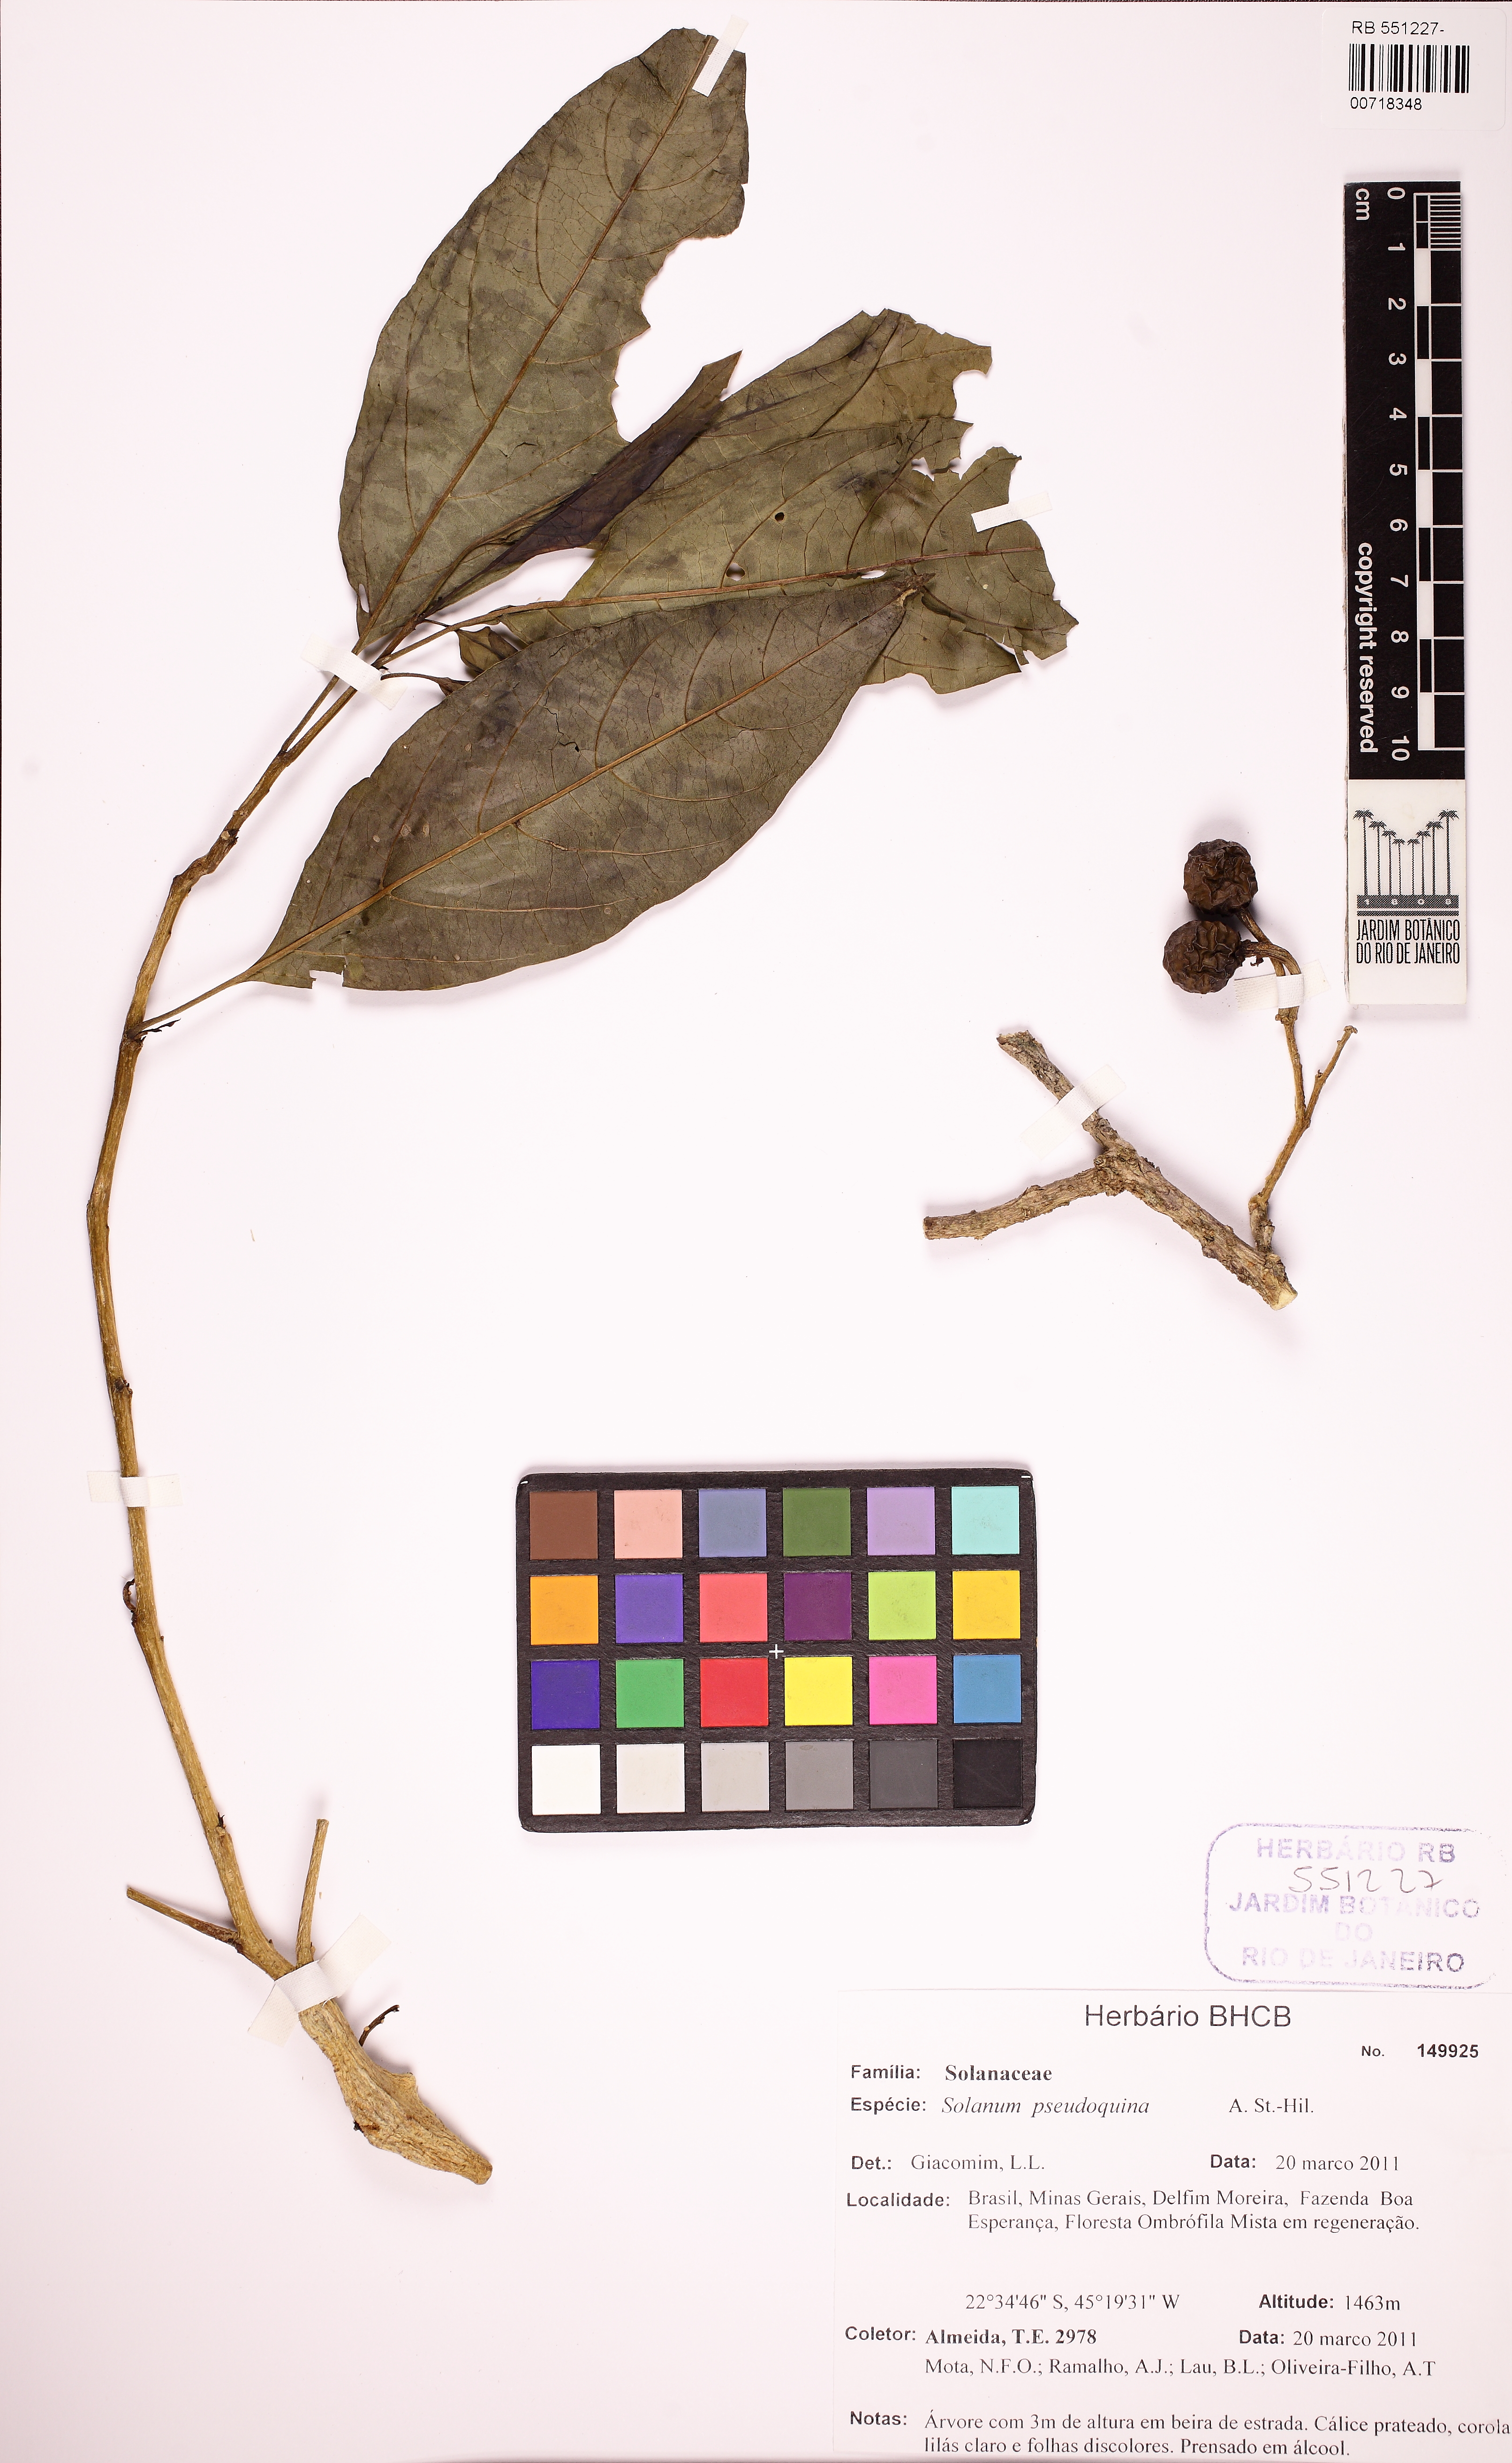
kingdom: Plantae
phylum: Tracheophyta
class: Magnoliopsida
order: Solanales
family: Solanaceae
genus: Solanum
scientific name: Solanum pseudoquina
